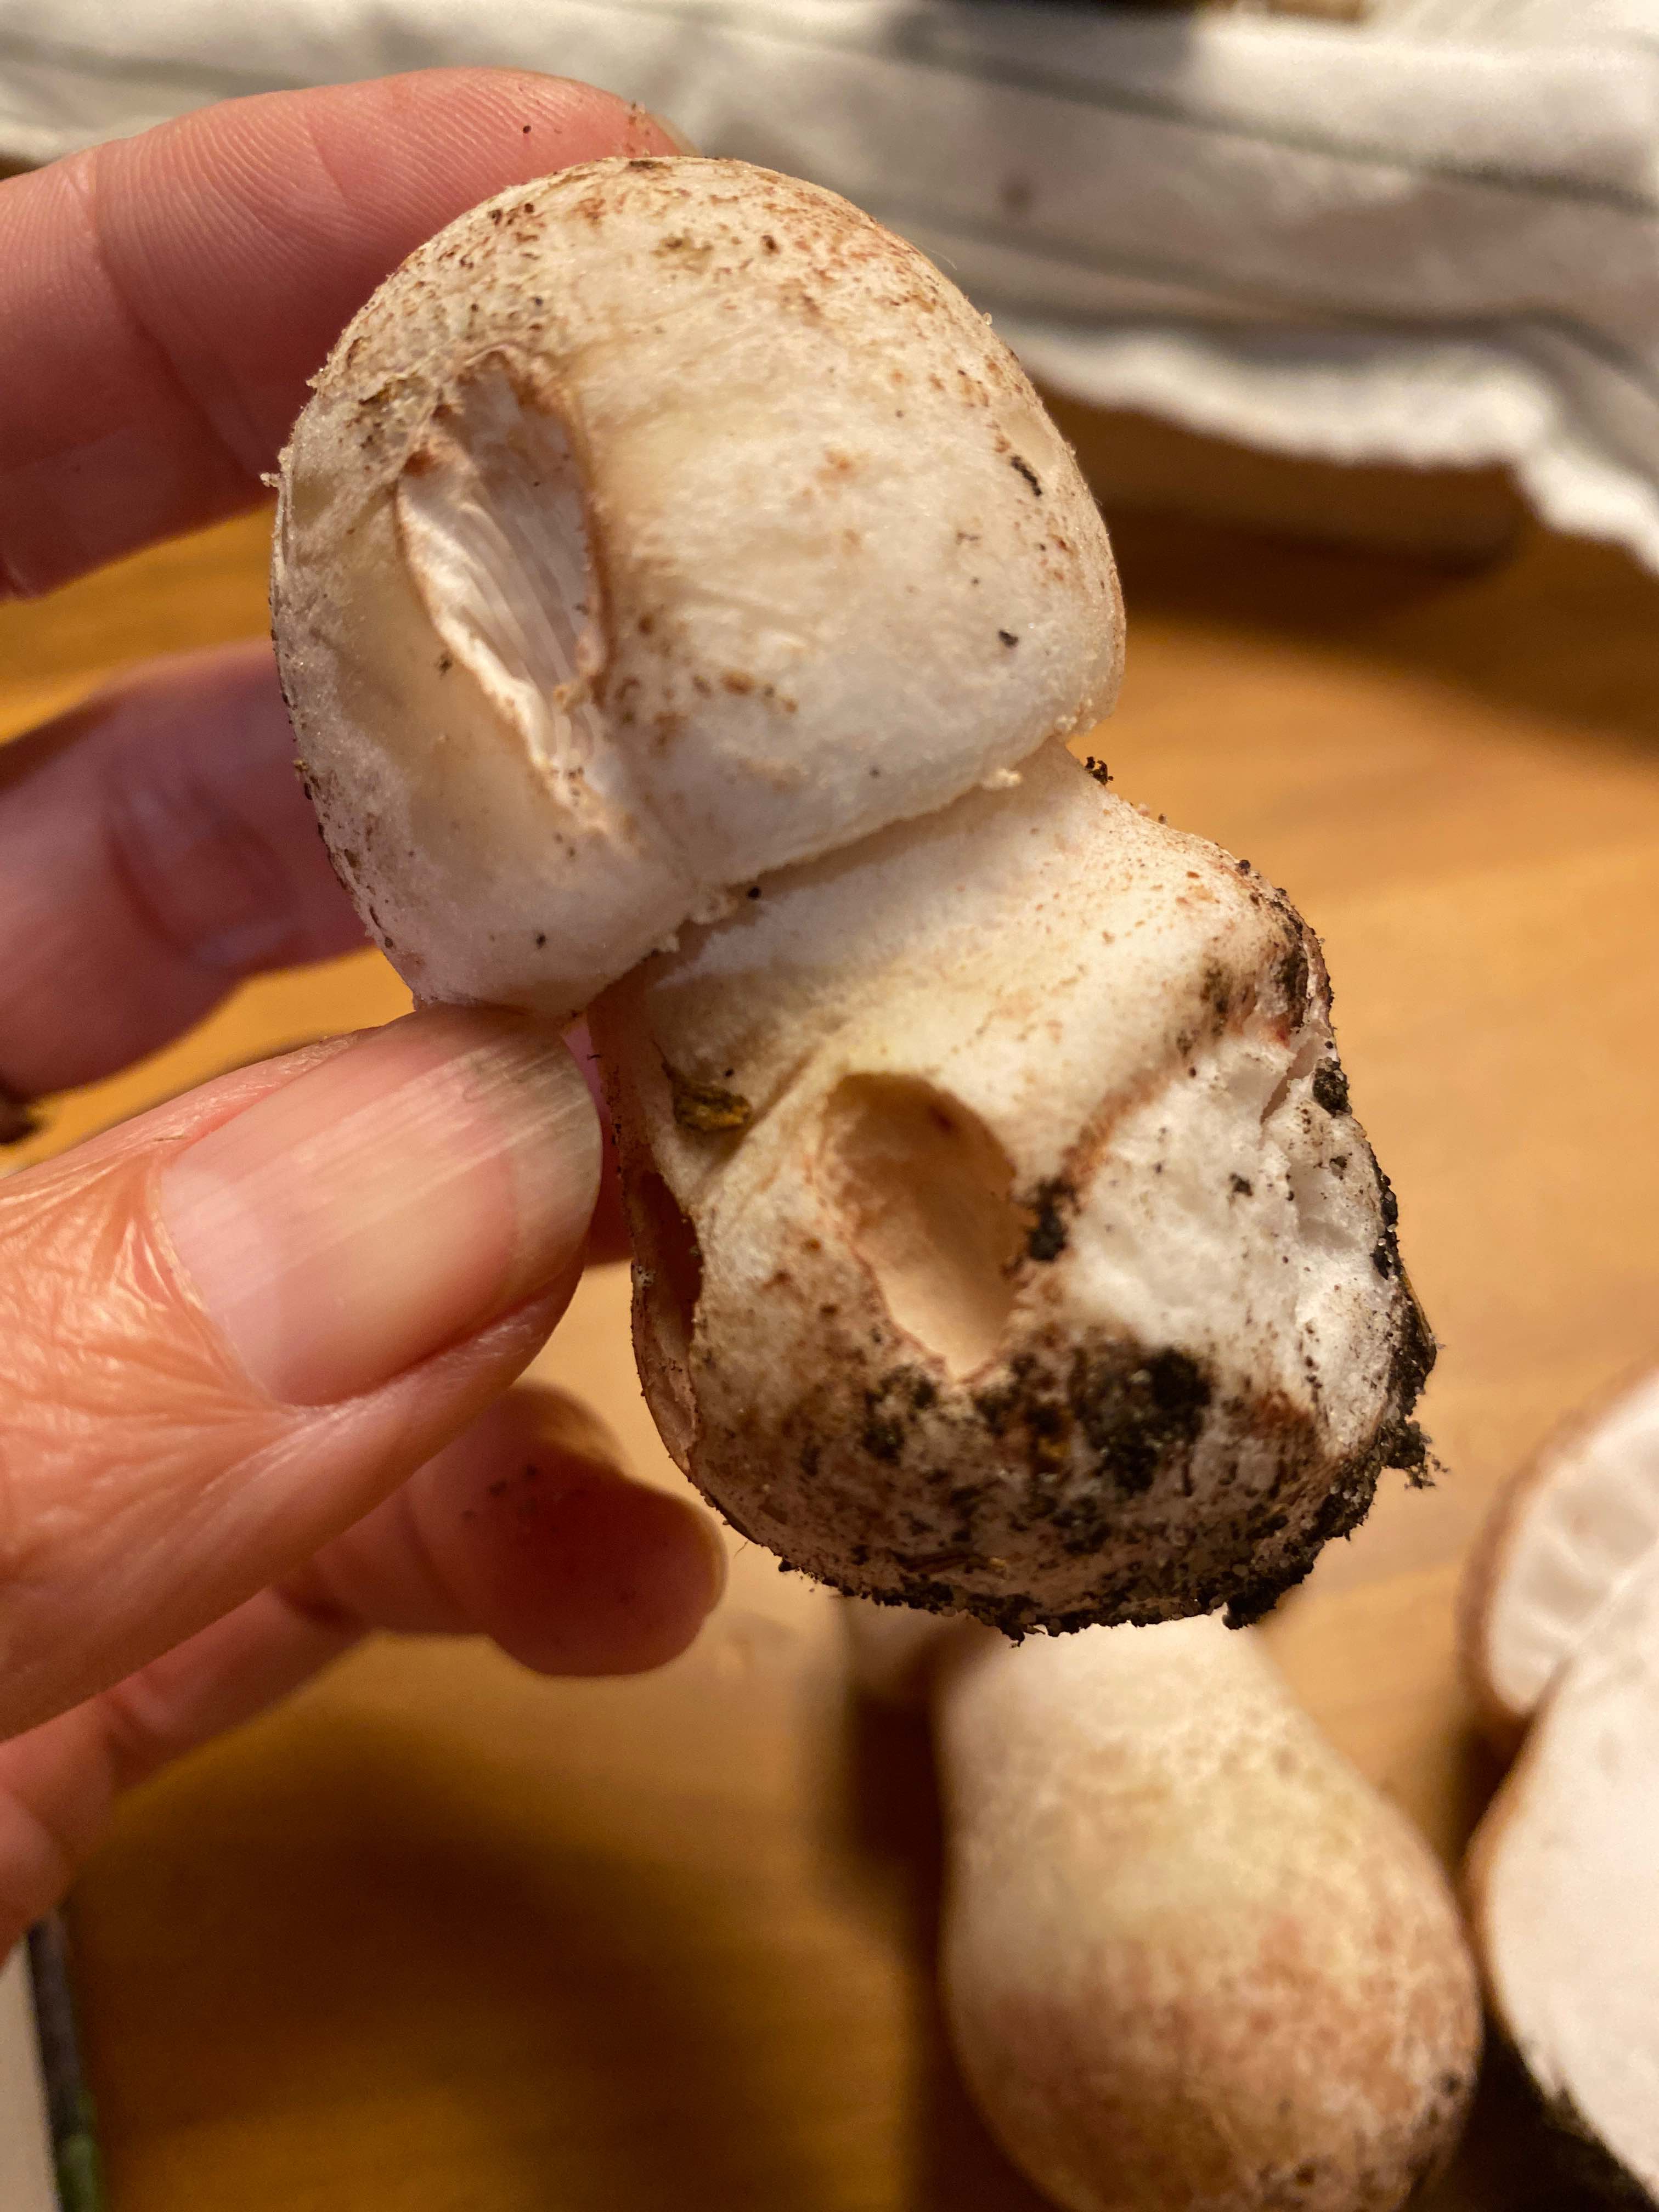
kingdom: Fungi
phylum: Basidiomycota
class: Agaricomycetes
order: Agaricales
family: Amanitaceae
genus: Amanita
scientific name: Amanita rubescens
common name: rødmende fluesvamp
